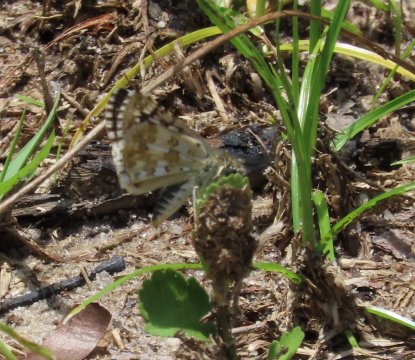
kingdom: Animalia
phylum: Arthropoda
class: Insecta
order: Lepidoptera
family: Hesperiidae
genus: Pyrgus
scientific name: Pyrgus communis
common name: White Checkered-Skipper
